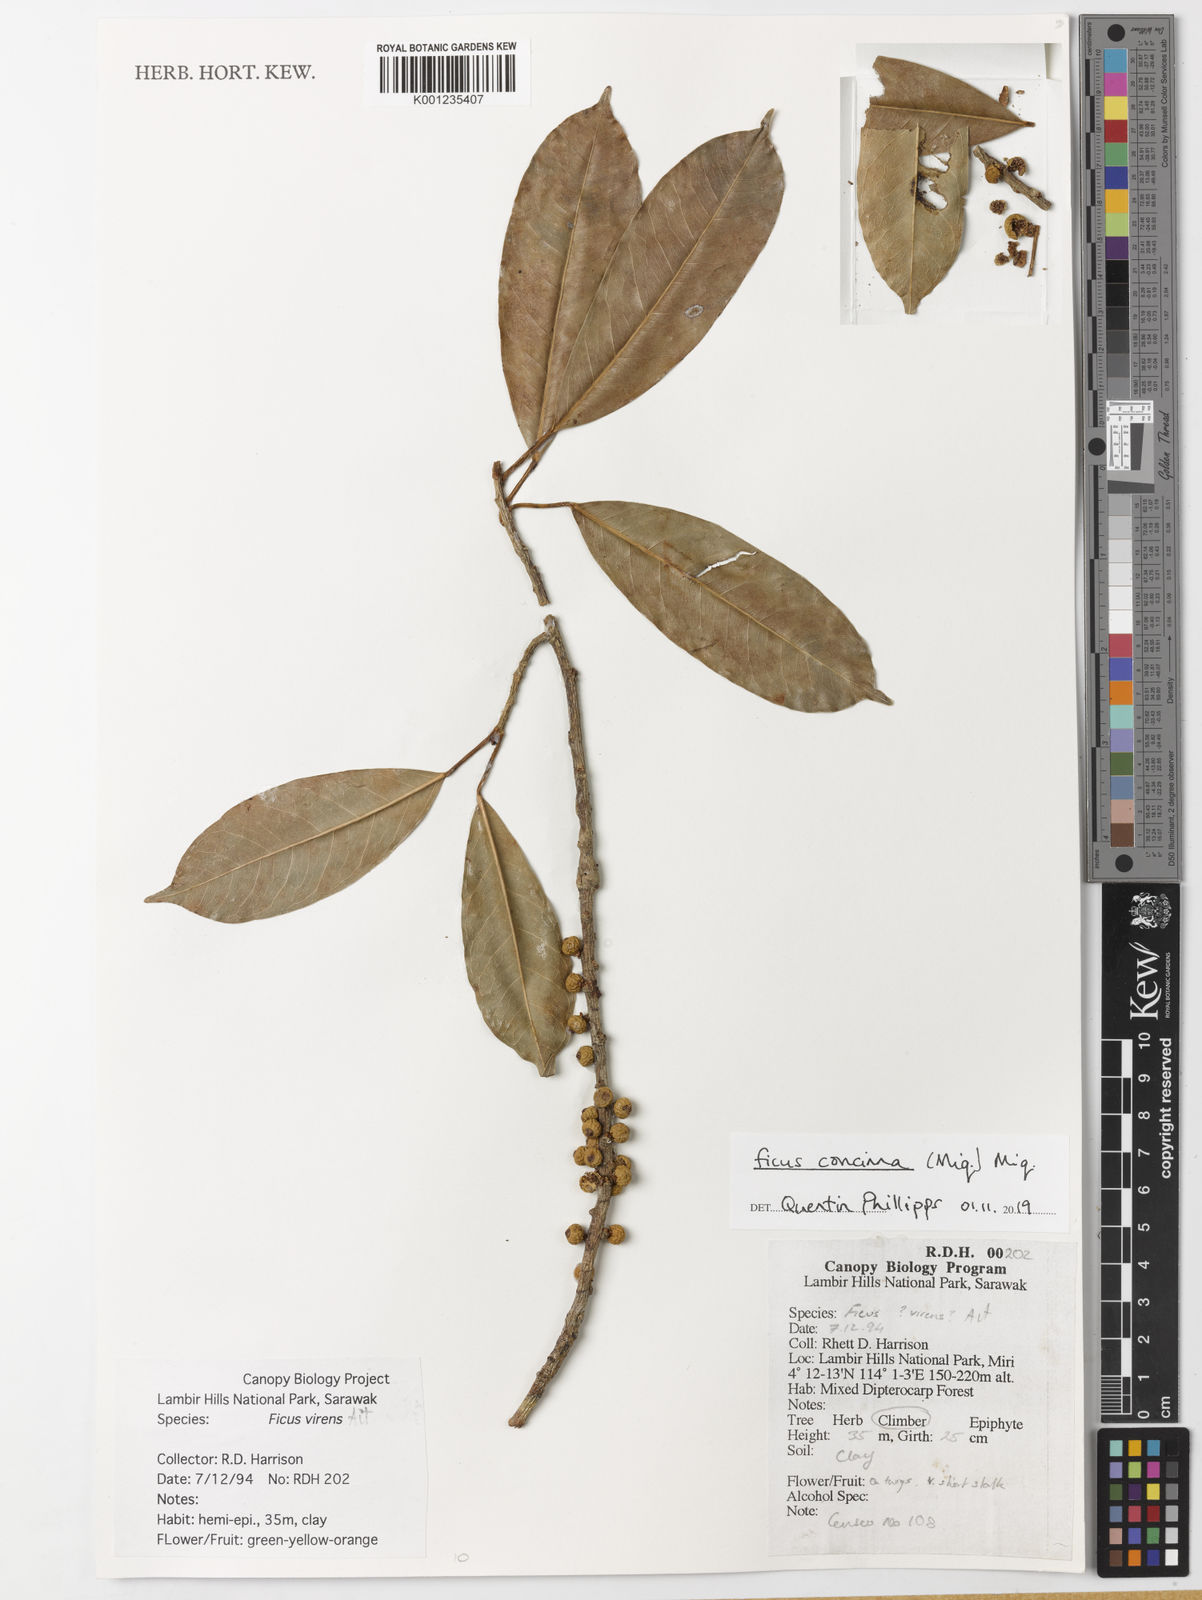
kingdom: Plantae
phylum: Tracheophyta
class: Magnoliopsida
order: Rosales
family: Moraceae
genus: Ficus
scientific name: Ficus concinna
